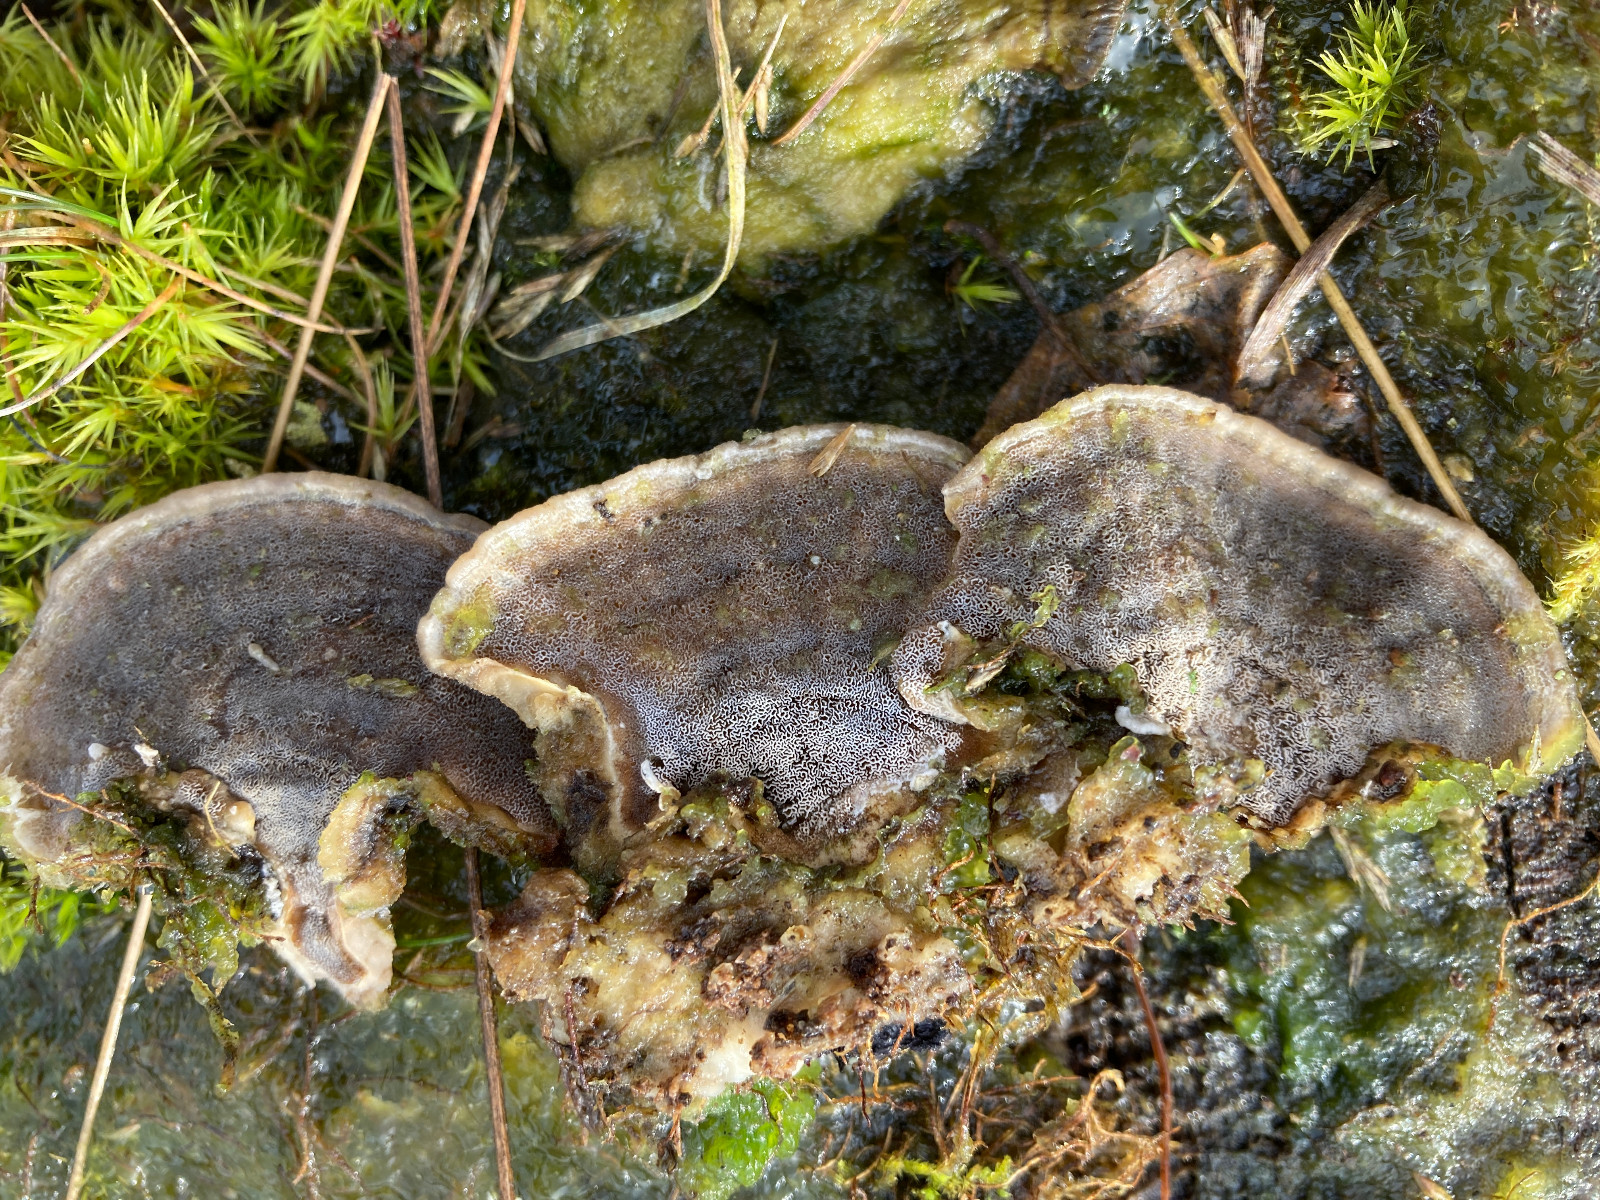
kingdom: Fungi
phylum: Basidiomycota
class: Agaricomycetes
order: Polyporales
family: Phanerochaetaceae
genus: Bjerkandera
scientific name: Bjerkandera adusta
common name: sveden sodporesvamp
